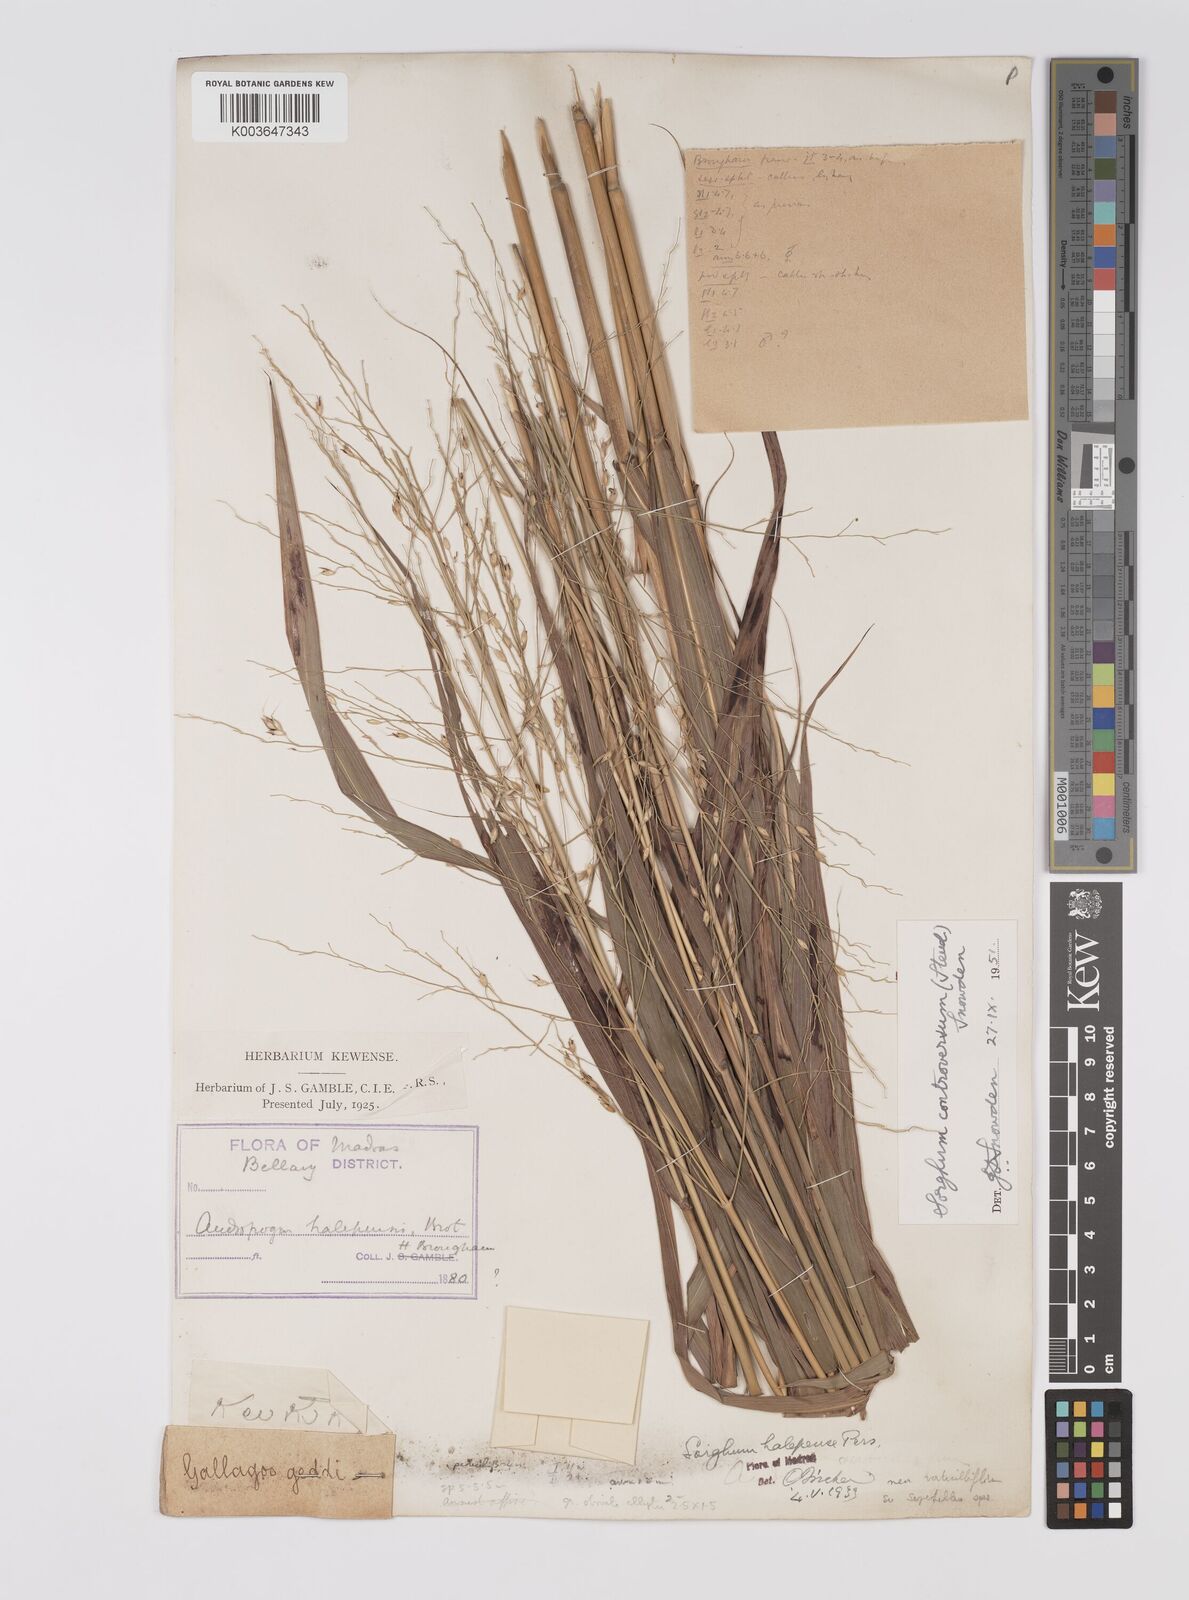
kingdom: Plantae
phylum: Tracheophyta
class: Liliopsida
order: Poales
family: Poaceae
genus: Sorghum
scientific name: Sorghum controversum
